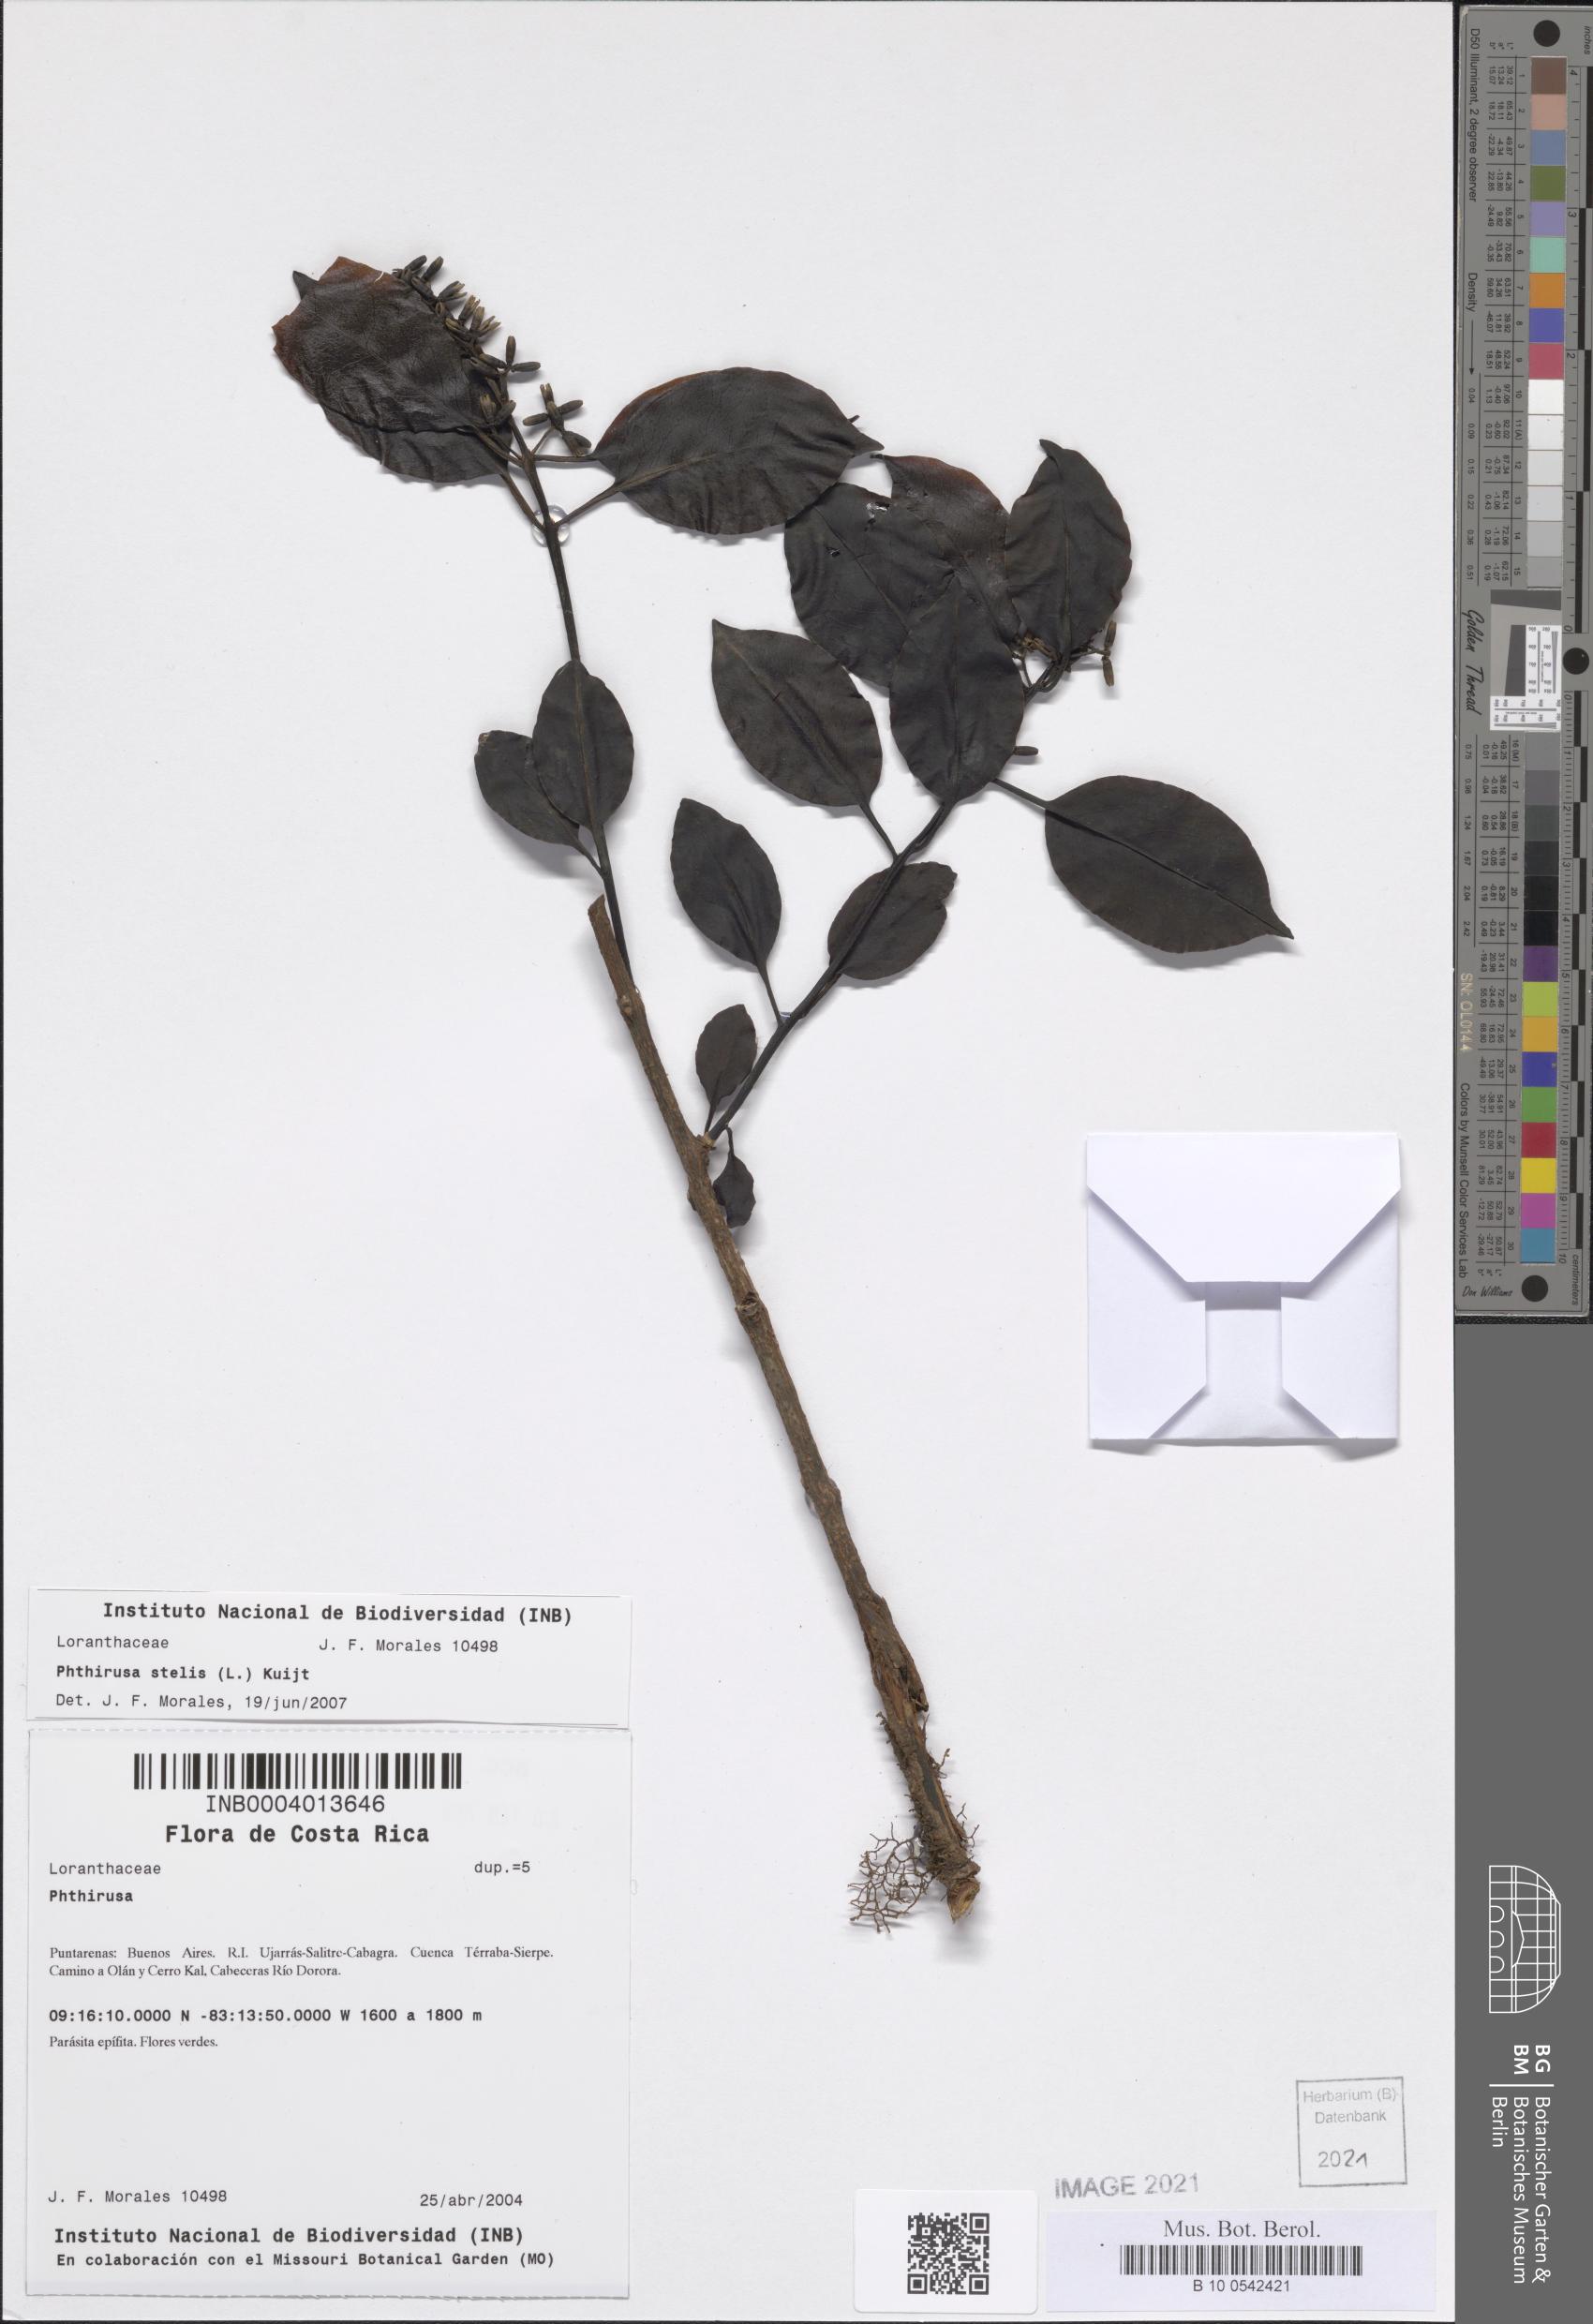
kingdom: Plantae
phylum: Tracheophyta
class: Magnoliopsida
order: Santalales
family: Loranthaceae
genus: Passovia
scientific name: Passovia pedunculata
